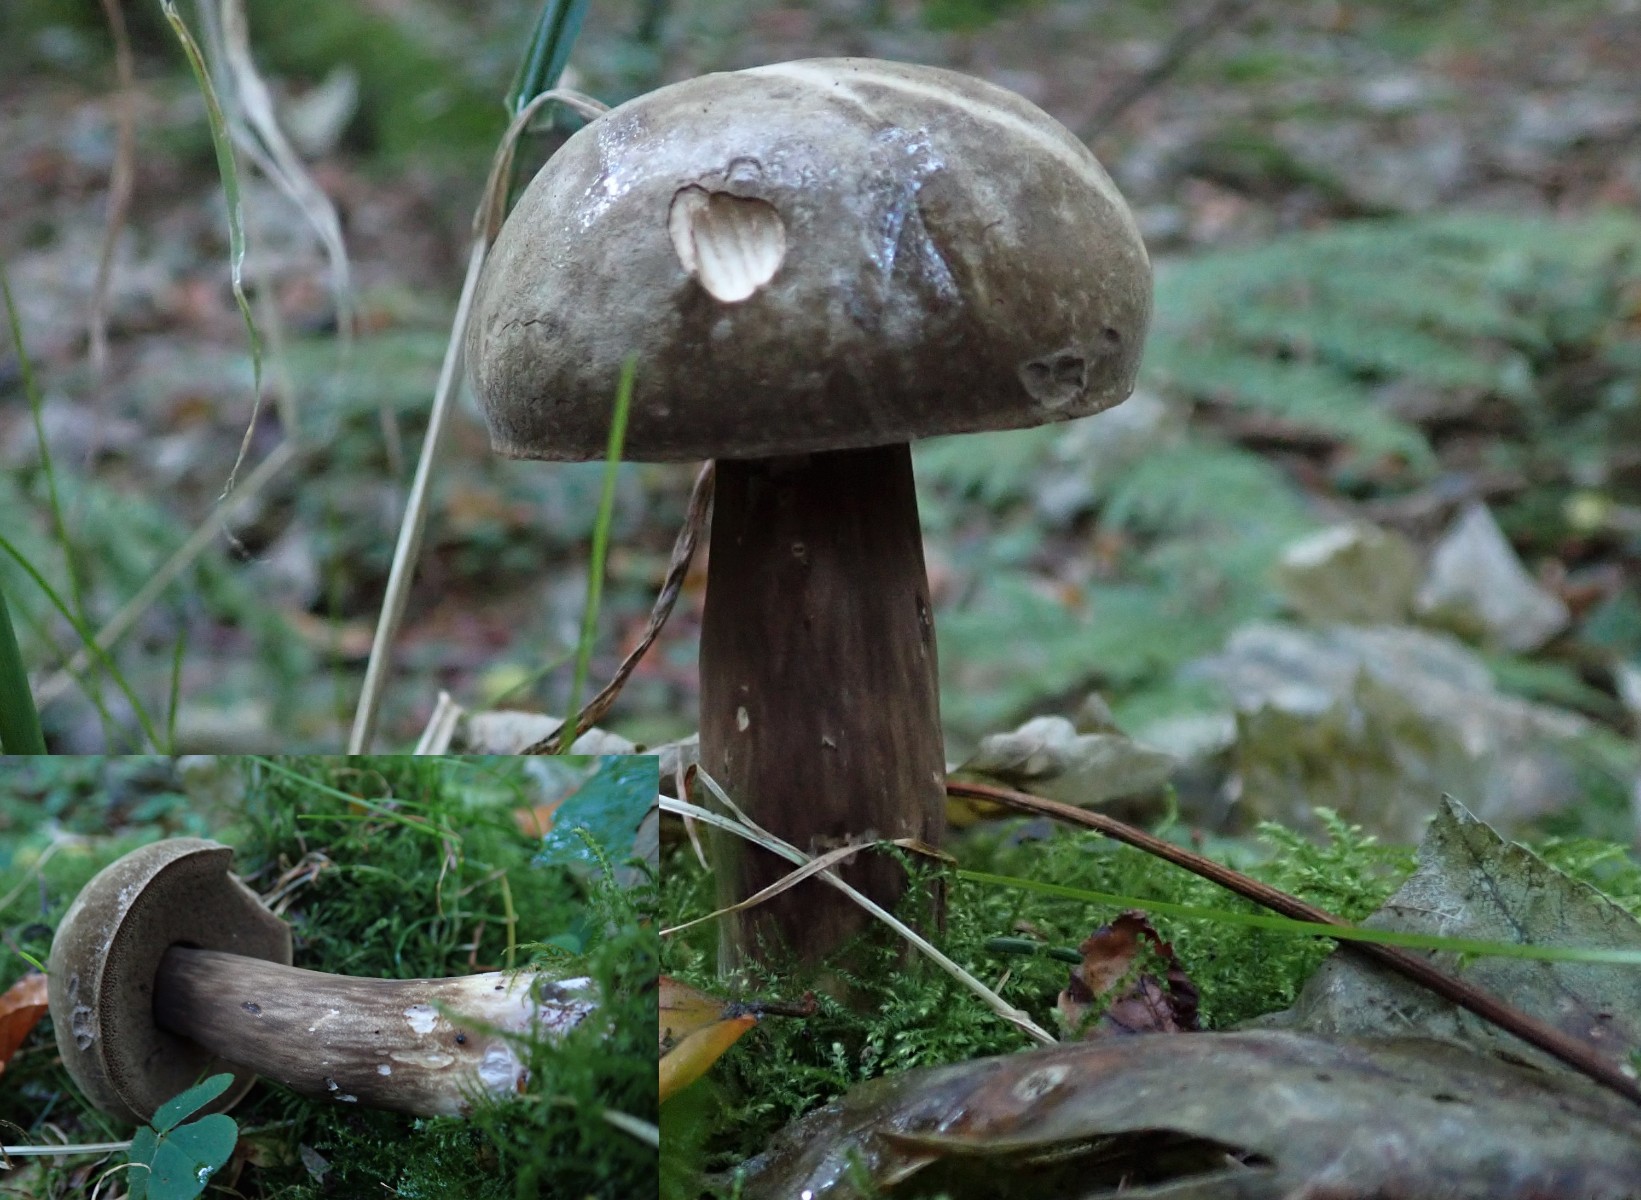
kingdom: Fungi
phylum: Basidiomycota
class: Agaricomycetes
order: Boletales
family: Boletaceae
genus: Porphyrellus
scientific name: Porphyrellus porphyrosporus
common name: sodrørhat
